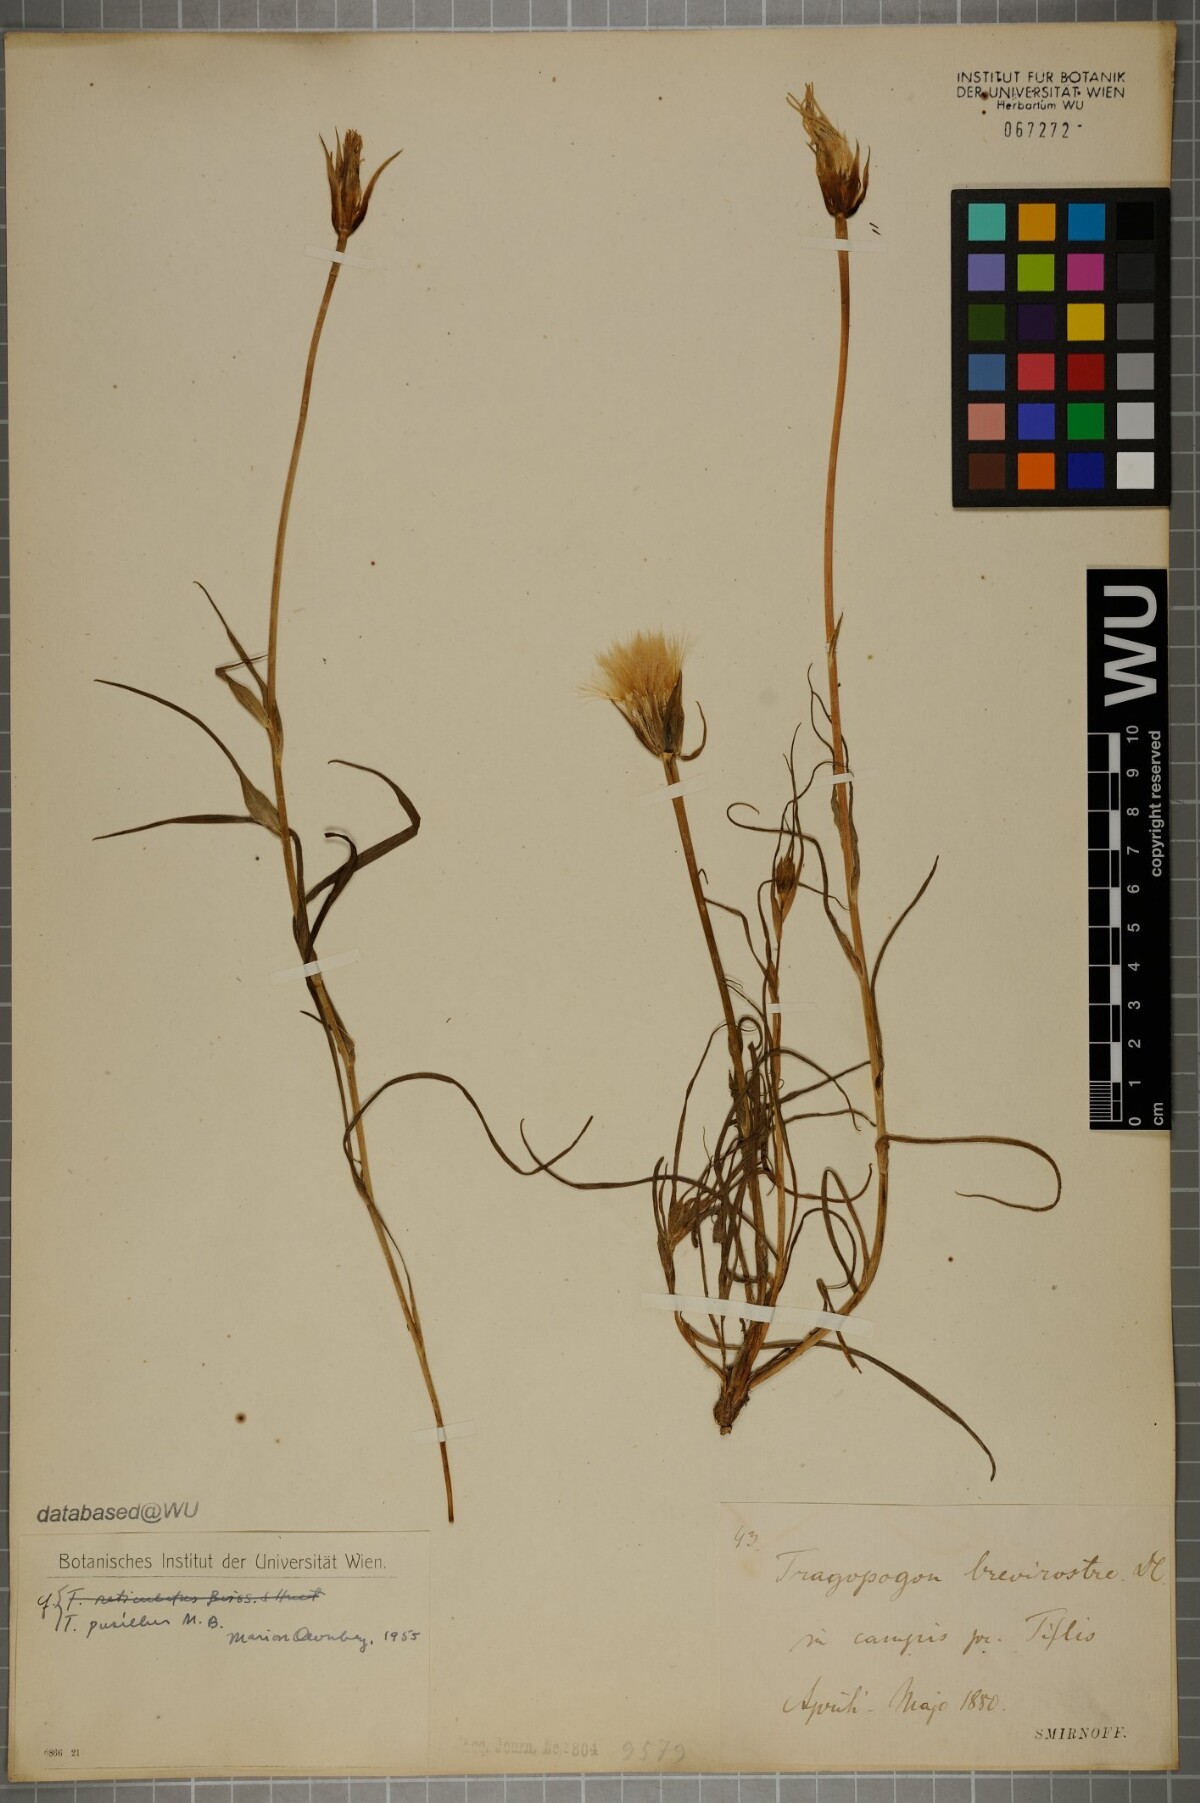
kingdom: Plantae
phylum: Tracheophyta
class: Magnoliopsida
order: Asterales
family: Asteraceae
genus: Tragopogon
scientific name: Tragopogon pusillus
